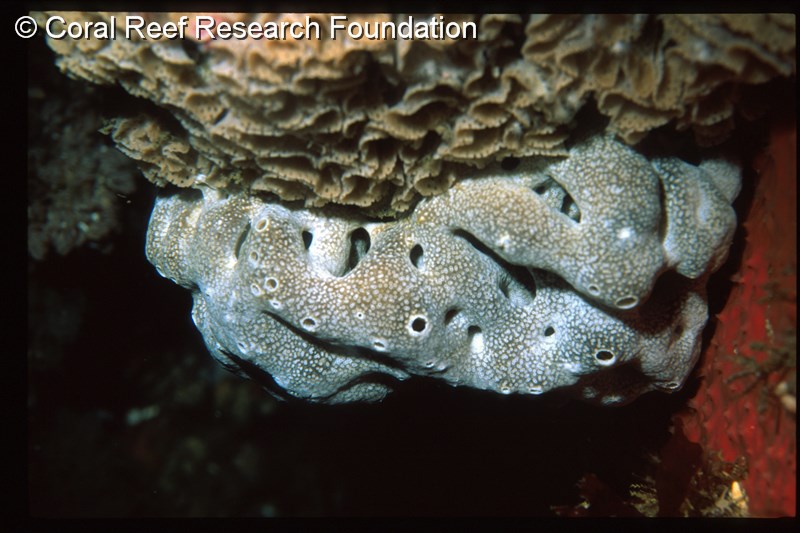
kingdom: Animalia
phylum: Chordata
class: Ascidiacea
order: Aplousobranchia
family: Didemnidae
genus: Trididemnum
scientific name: Trididemnum cerebriforme
